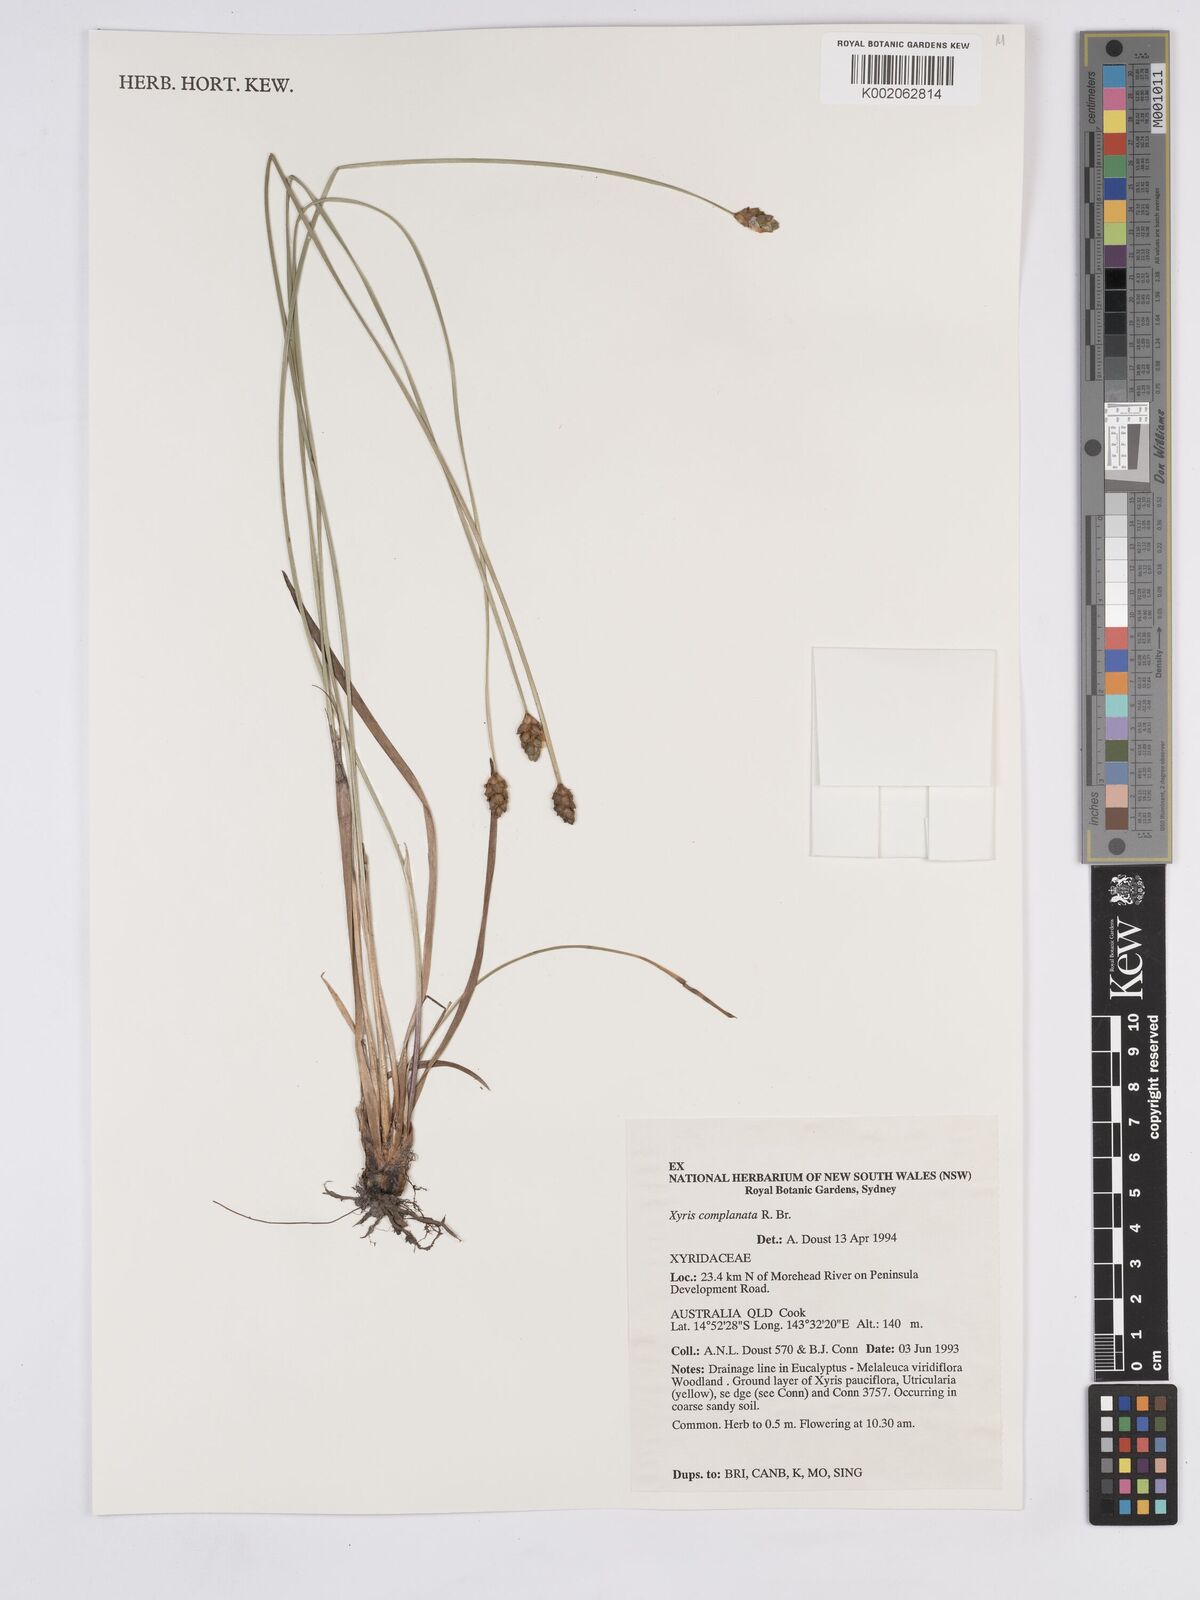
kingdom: Plantae
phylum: Tracheophyta
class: Liliopsida
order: Poales
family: Xyridaceae
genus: Xyris
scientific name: Xyris complanata
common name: Hawai'i yelloweyed grass
